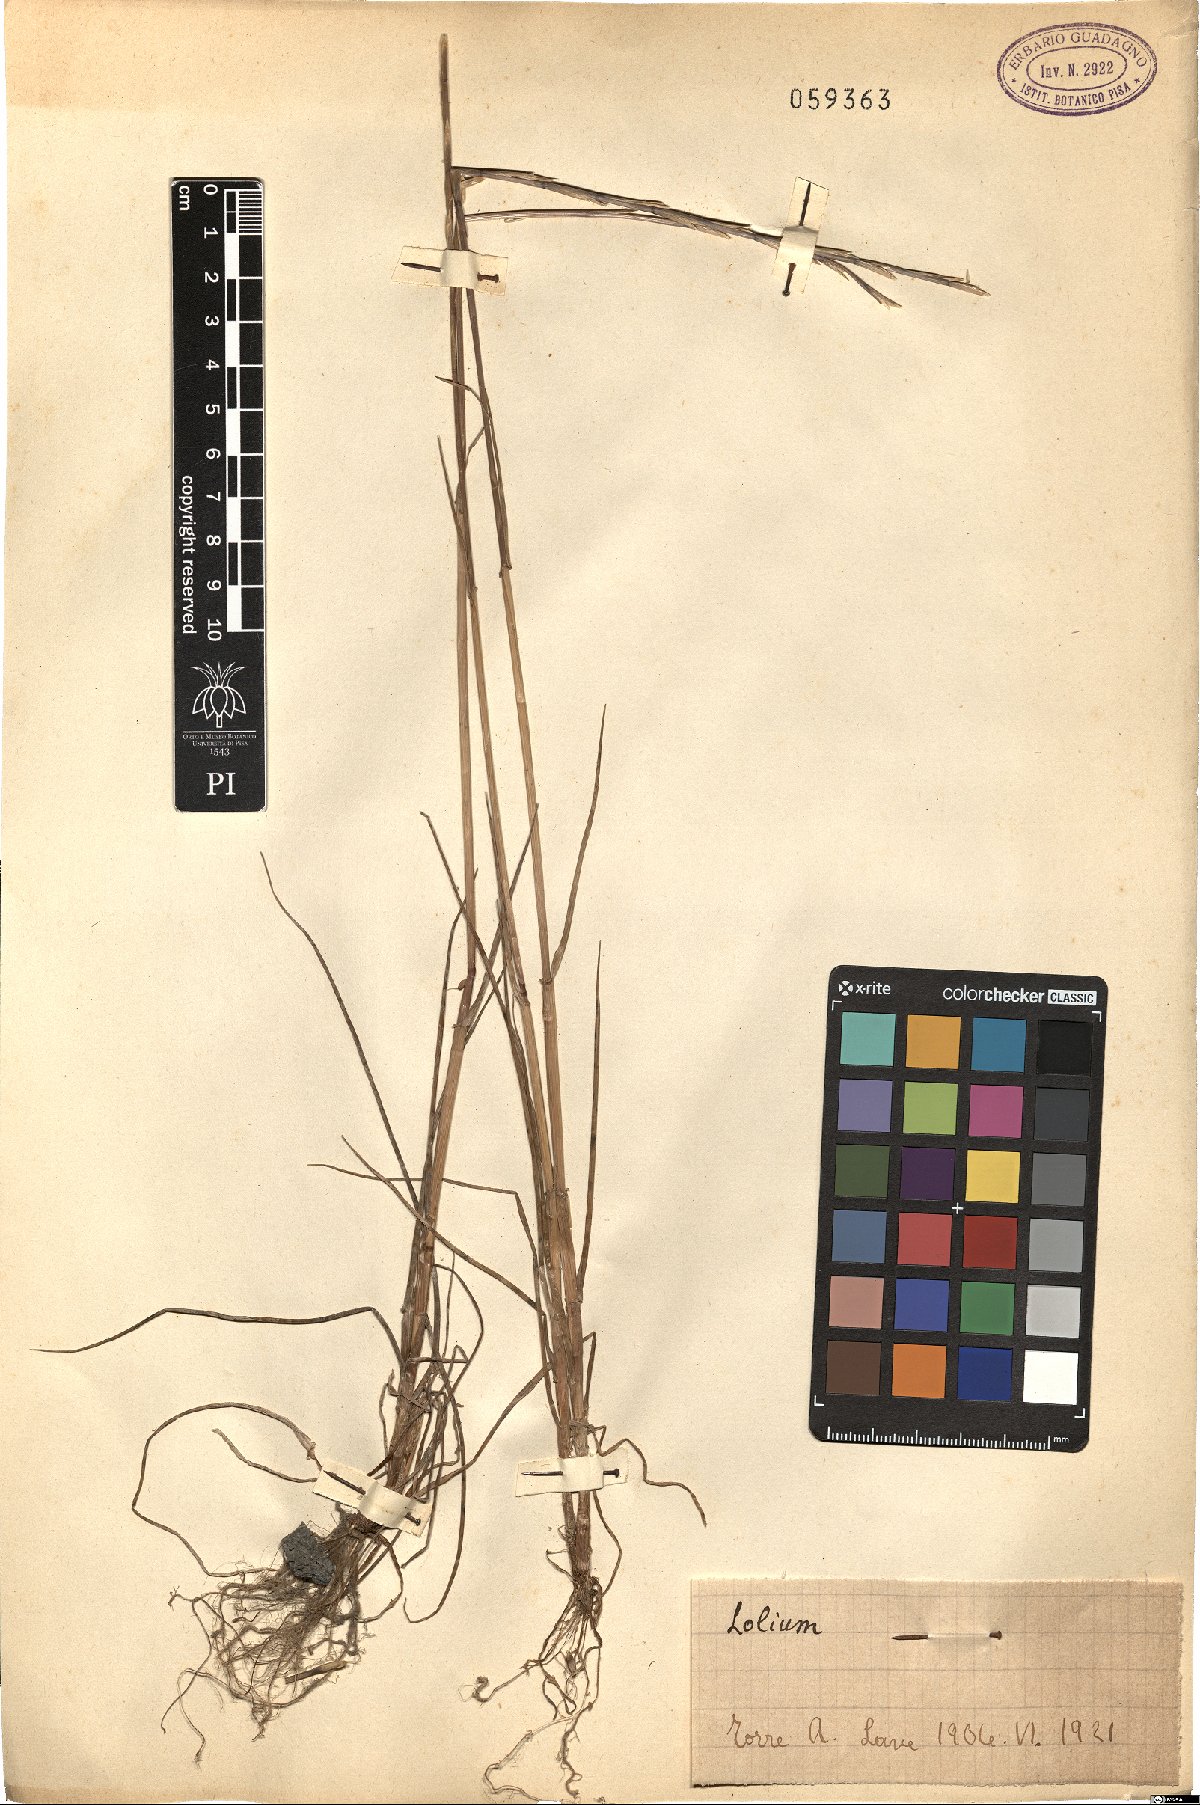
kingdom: Plantae
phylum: Tracheophyta
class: Liliopsida
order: Poales
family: Poaceae
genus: Lolium
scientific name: Lolium
